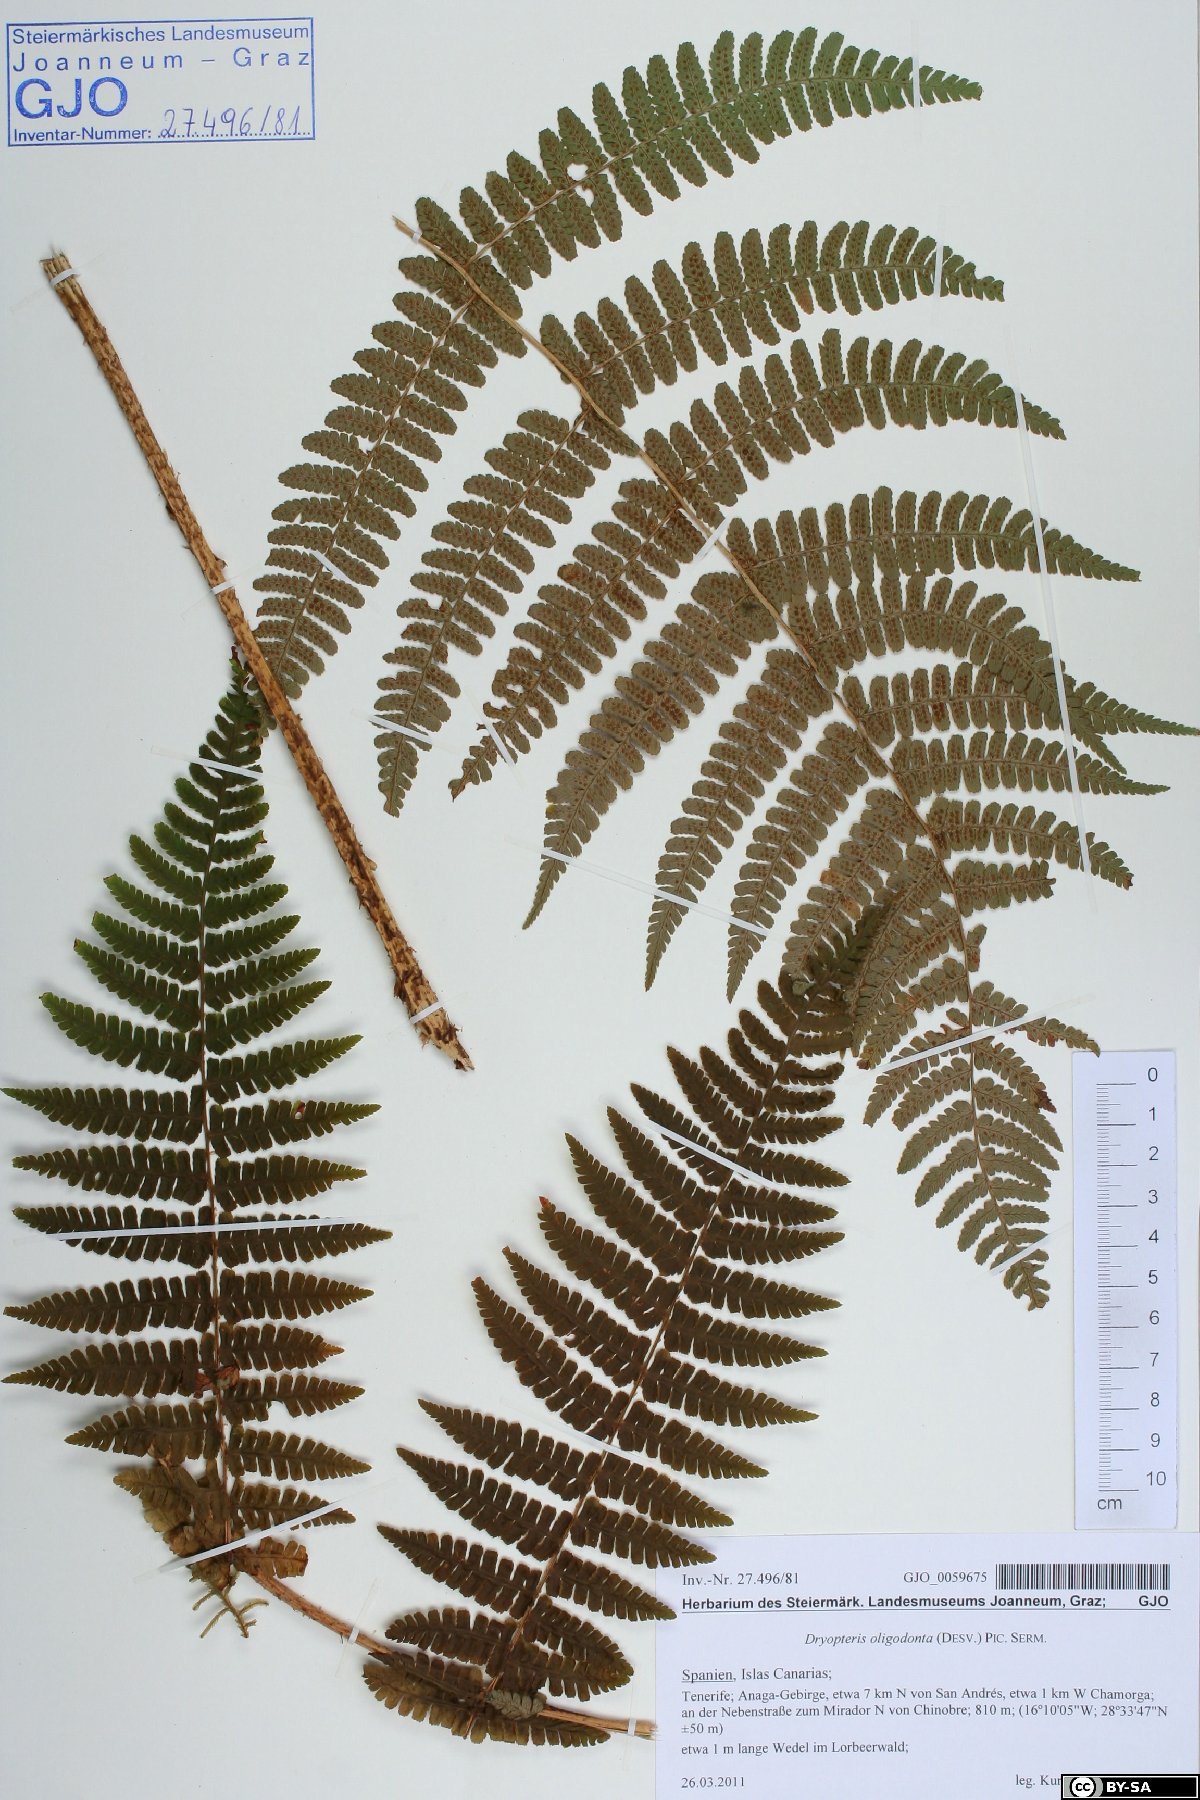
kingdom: Plantae
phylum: Tracheophyta
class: Polypodiopsida
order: Polypodiales
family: Dryopteridaceae
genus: Dryopteris
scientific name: Dryopteris oligodonta
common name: Canarian male-fern
